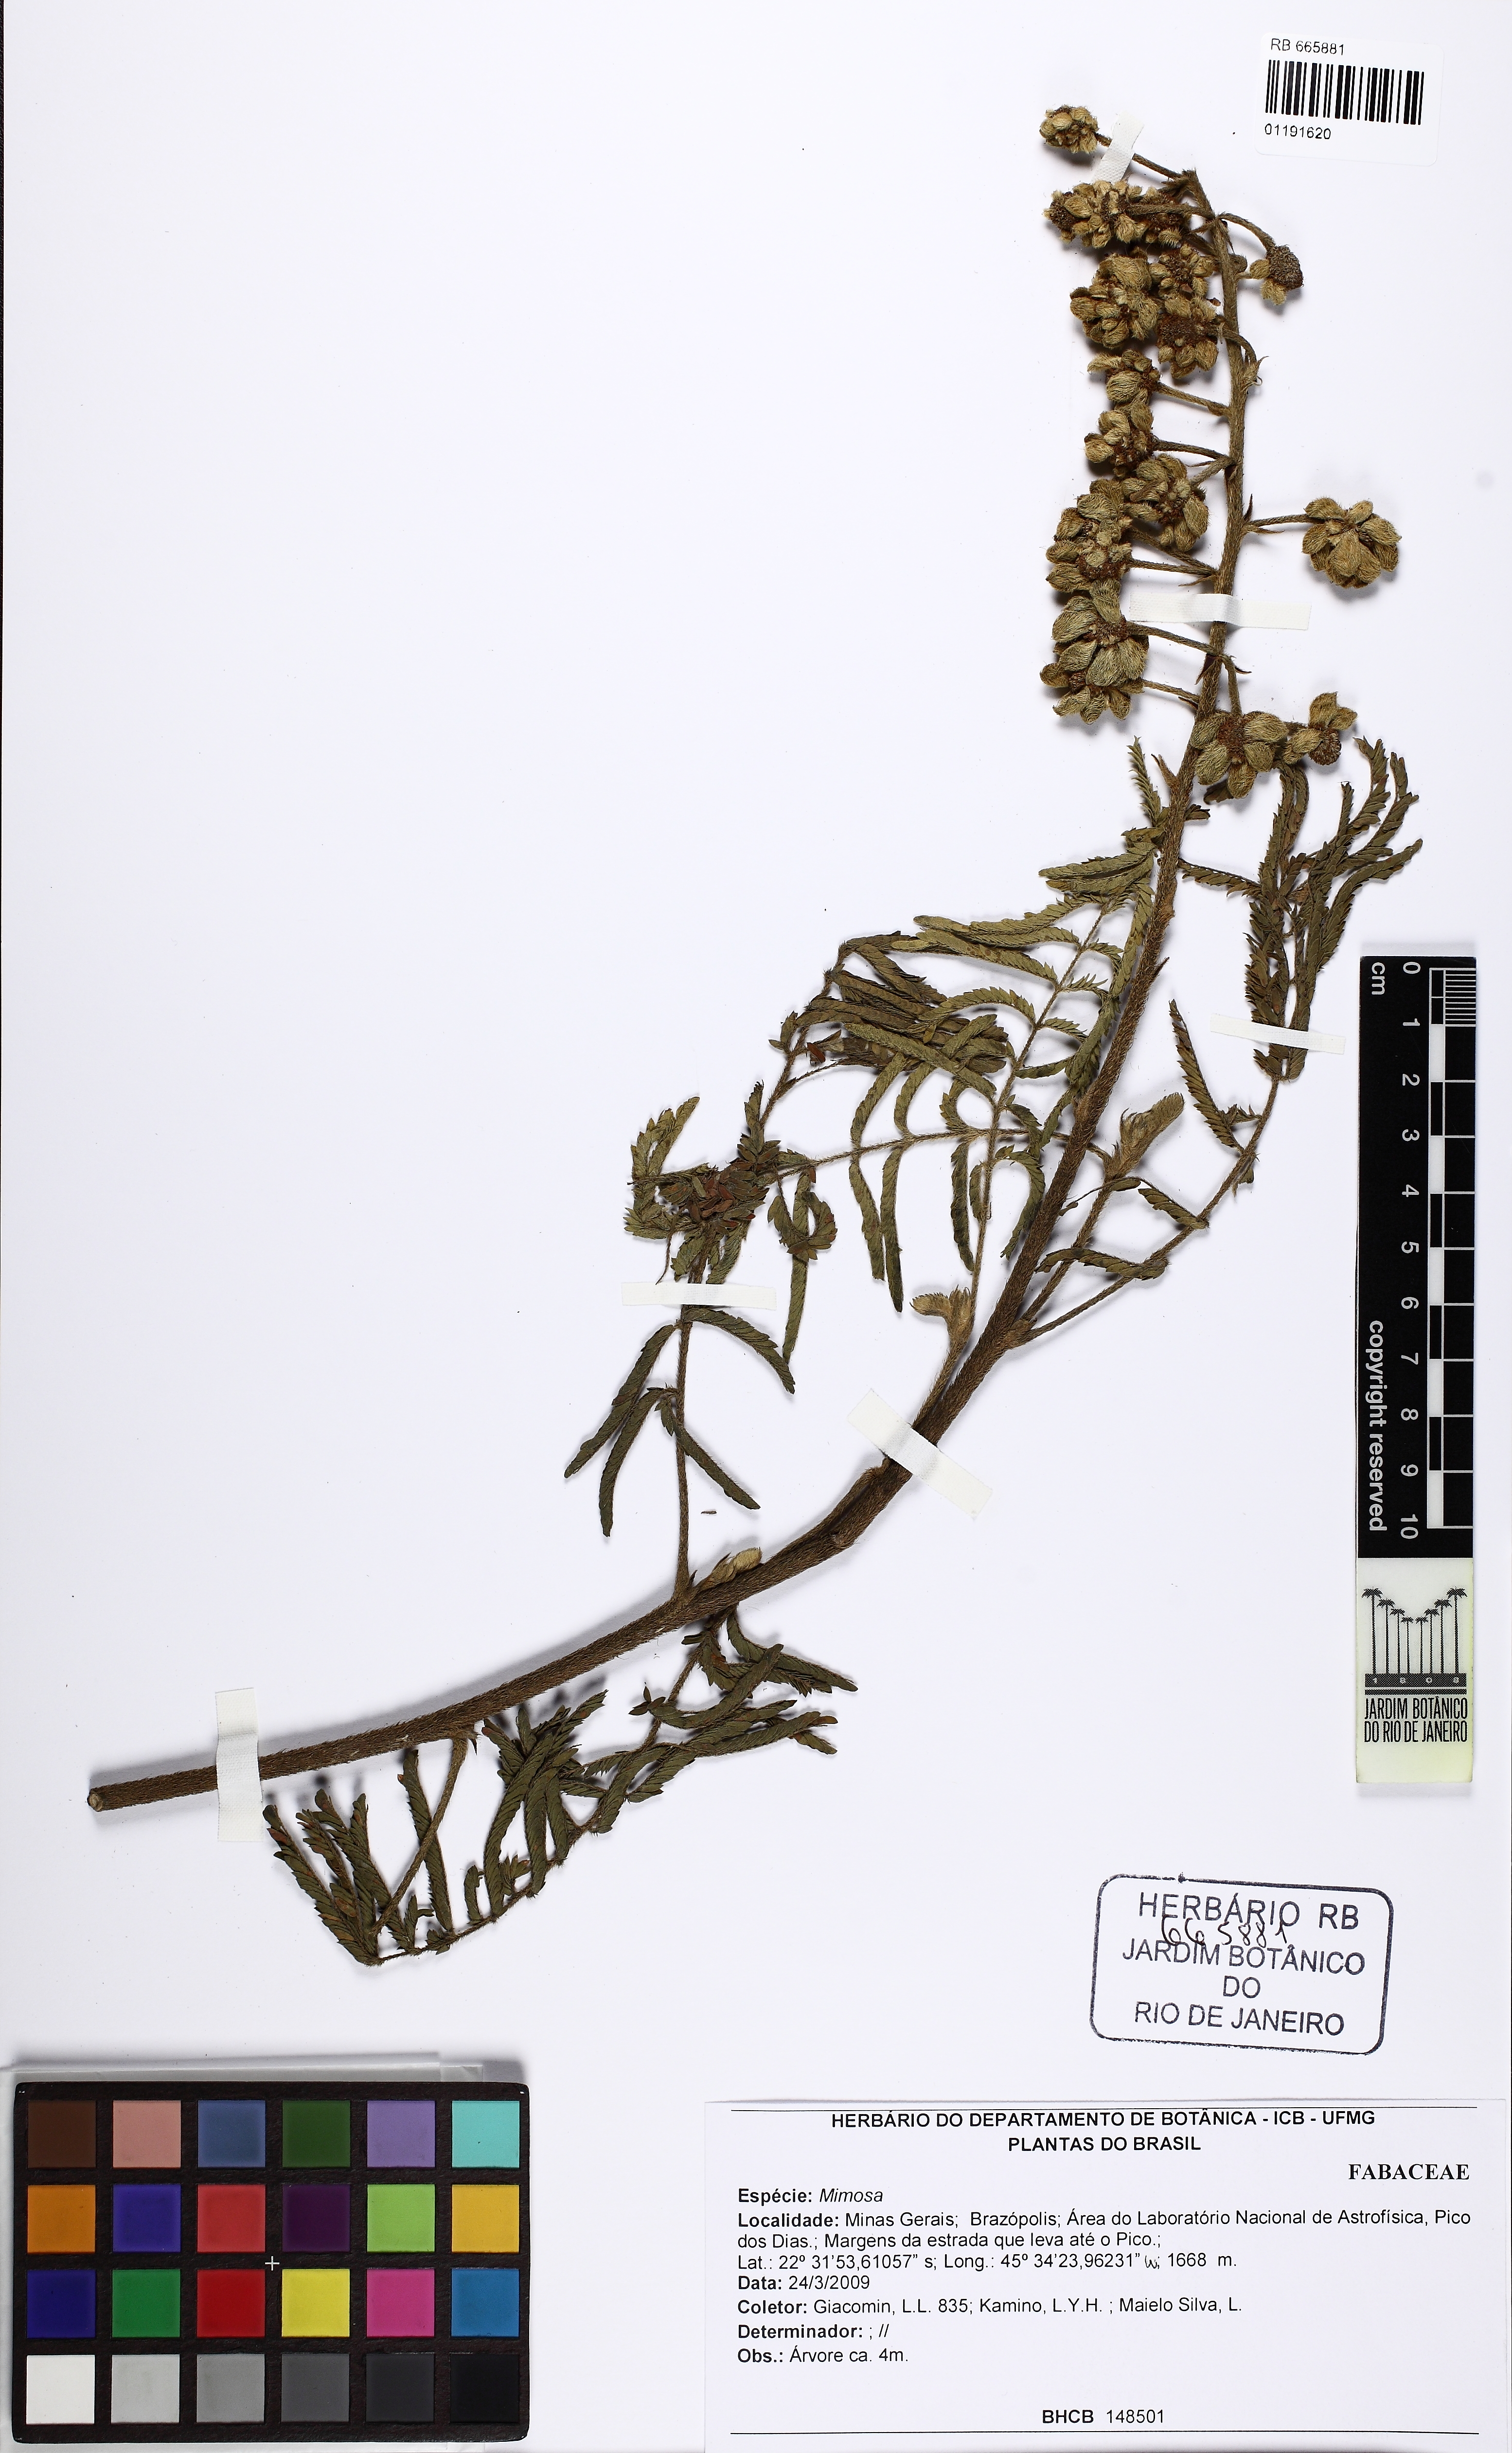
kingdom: Plantae
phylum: Tracheophyta
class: Magnoliopsida
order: Fabales
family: Fabaceae
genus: Mimosa
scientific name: Mimosa
